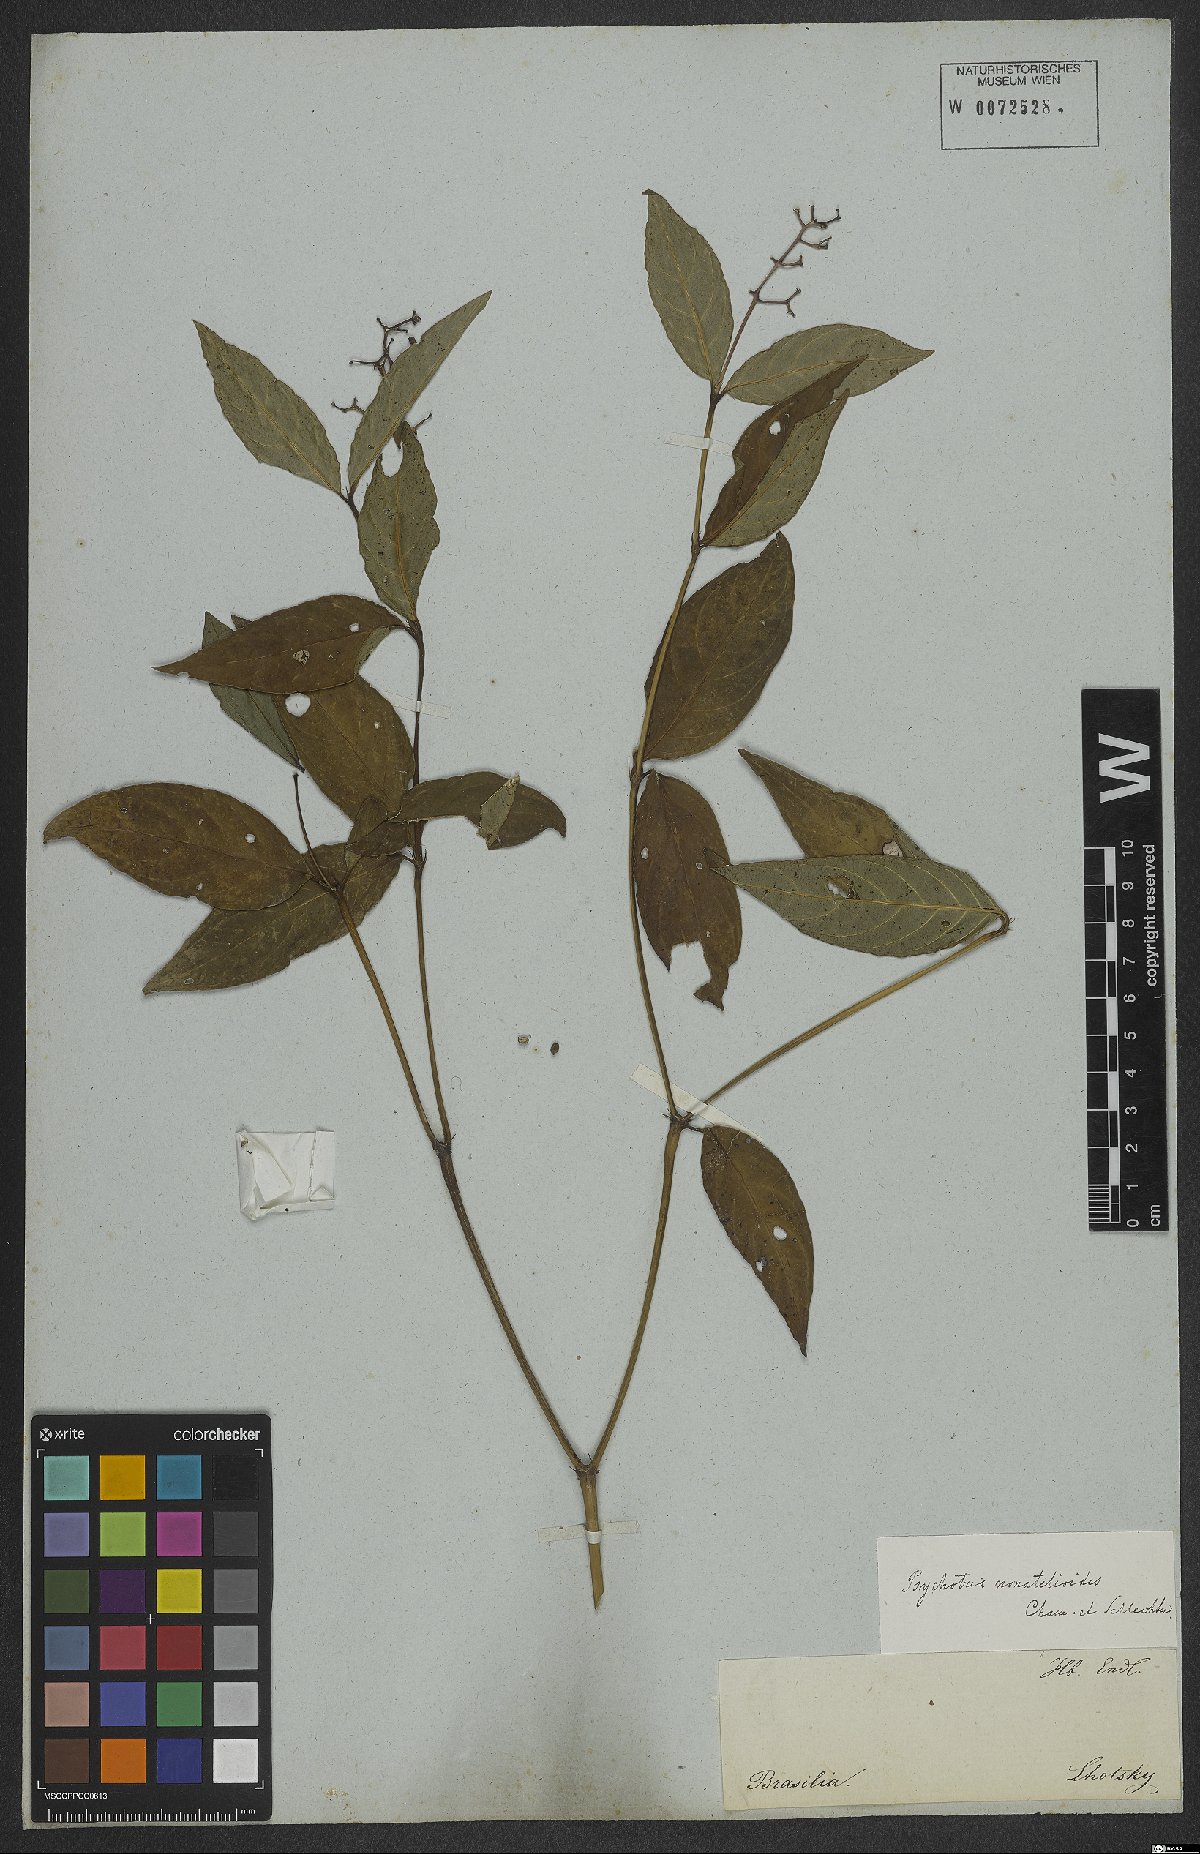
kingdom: Plantae
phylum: Tracheophyta
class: Magnoliopsida
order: Gentianales
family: Rubiaceae
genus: Palicourea
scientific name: Palicourea patens
